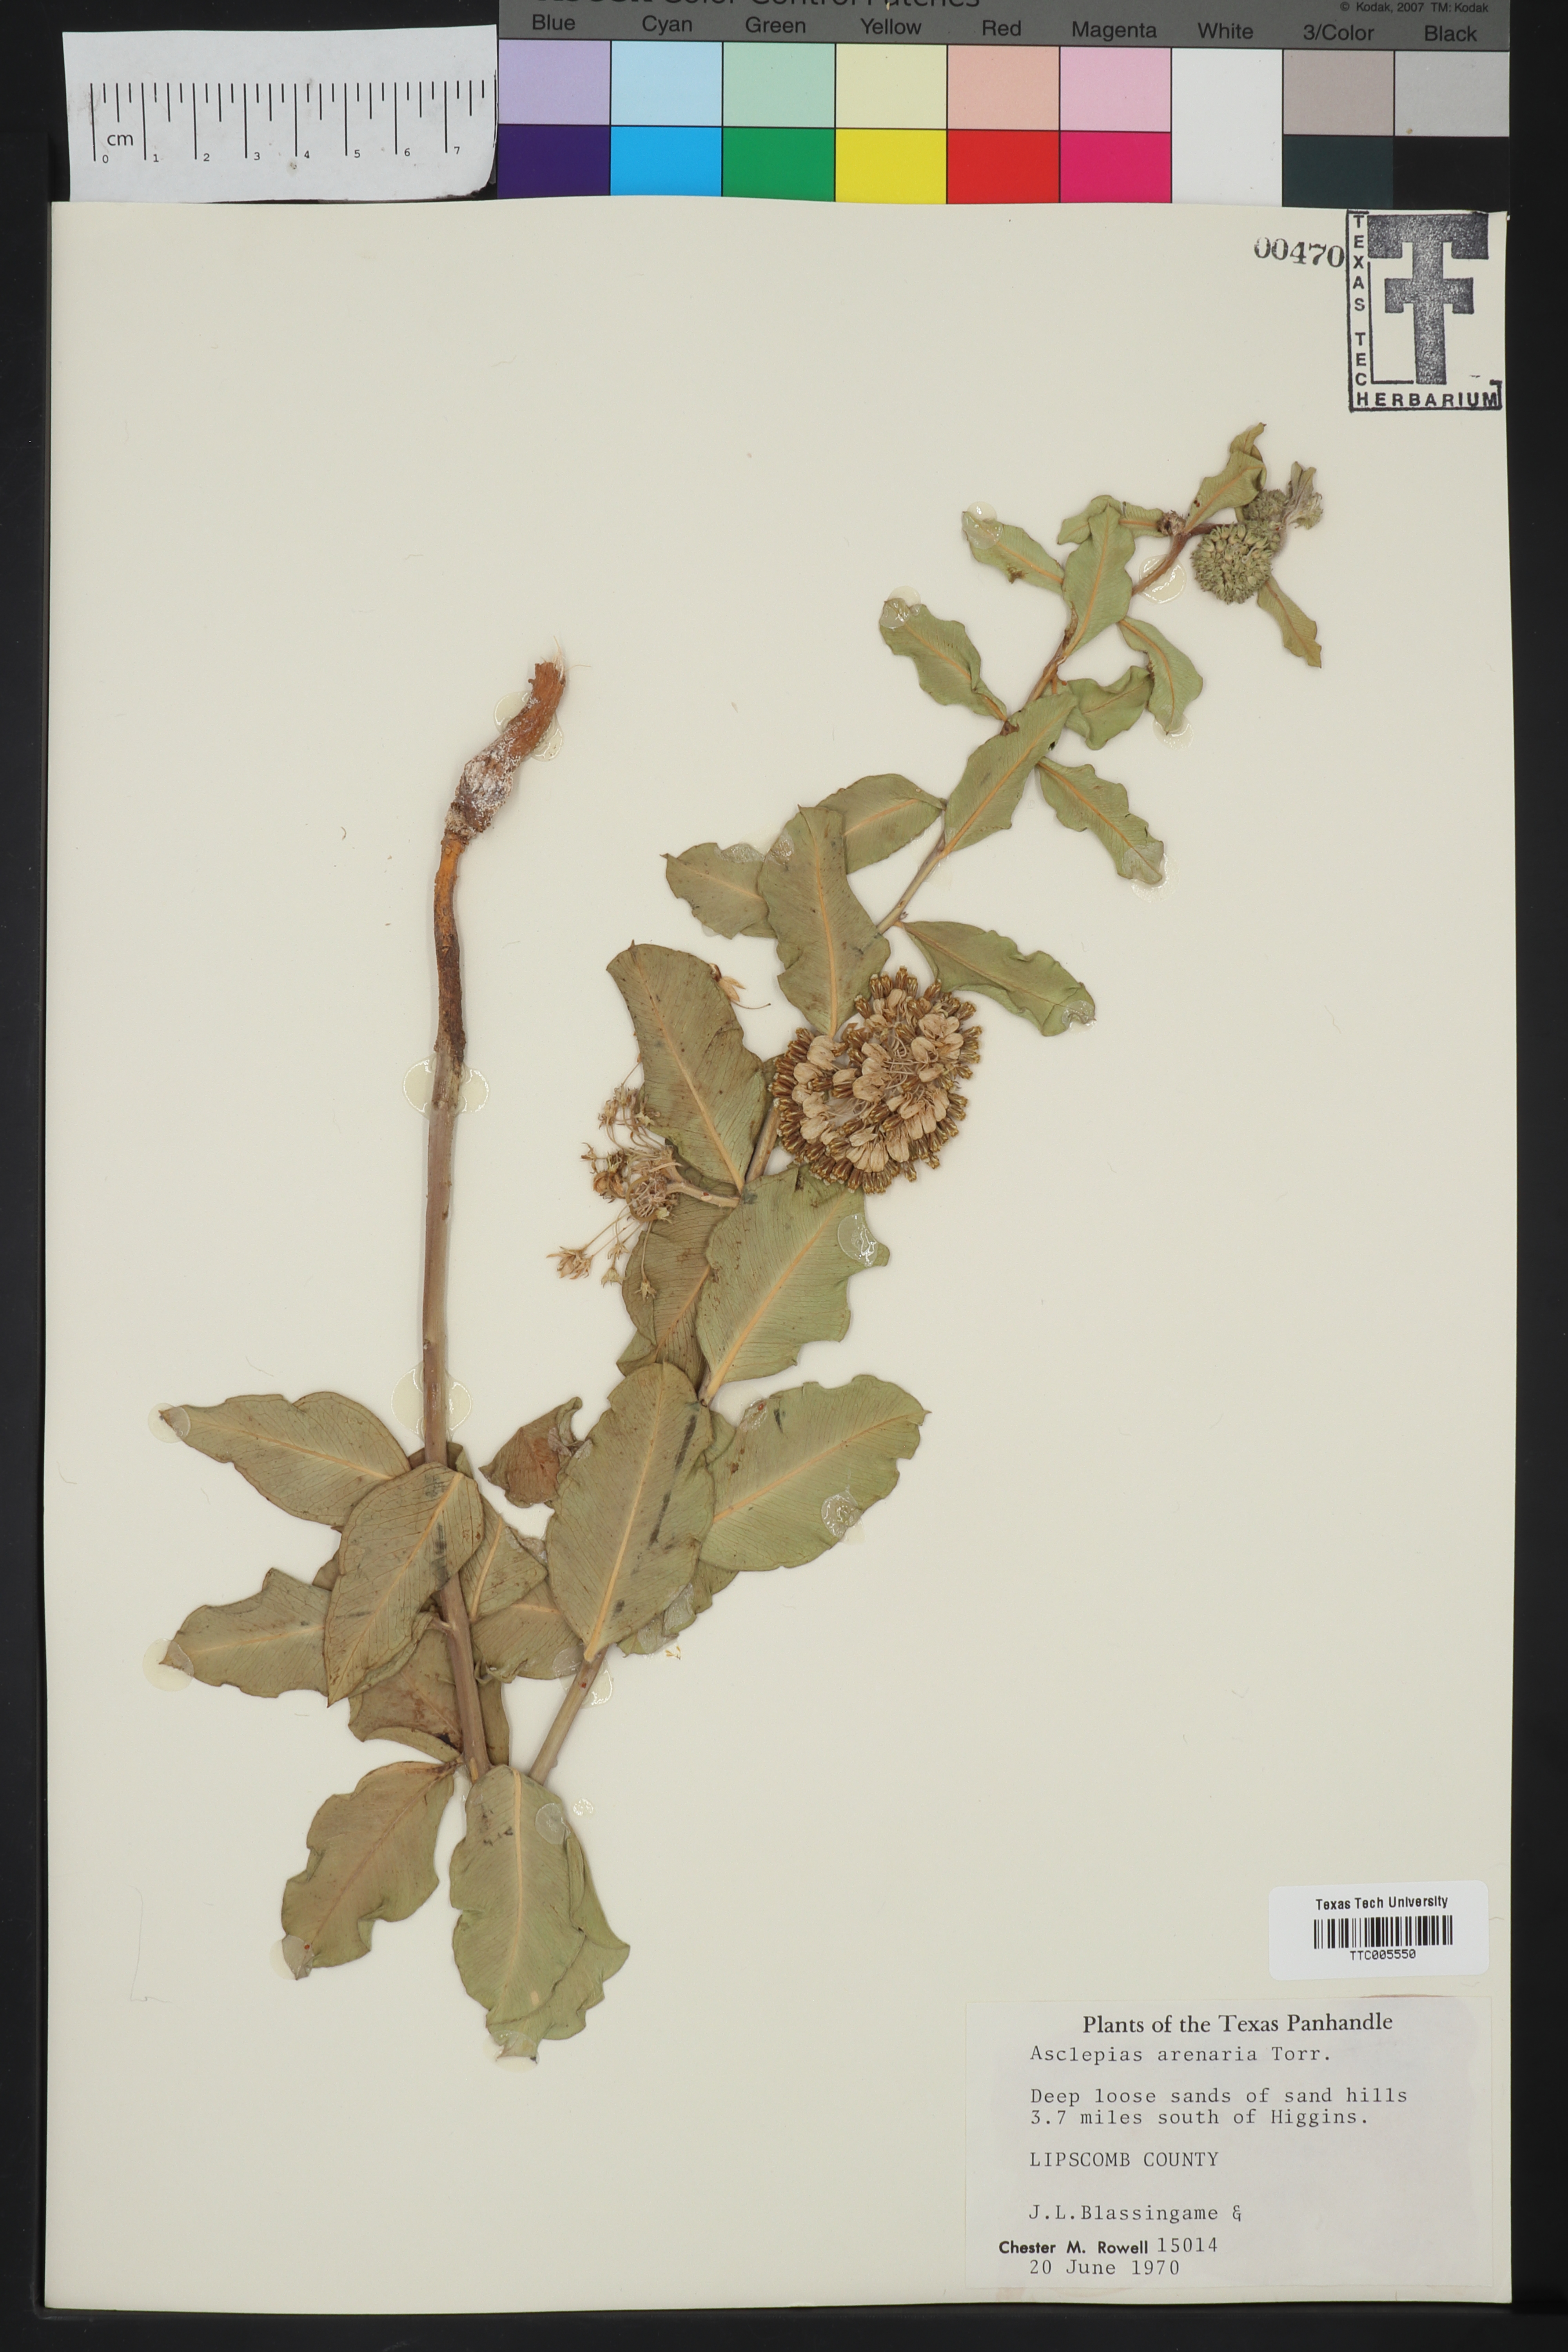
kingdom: Plantae
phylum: Tracheophyta
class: Magnoliopsida
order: Gentianales
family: Apocynaceae
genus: Asclepias
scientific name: Asclepias arenaria
